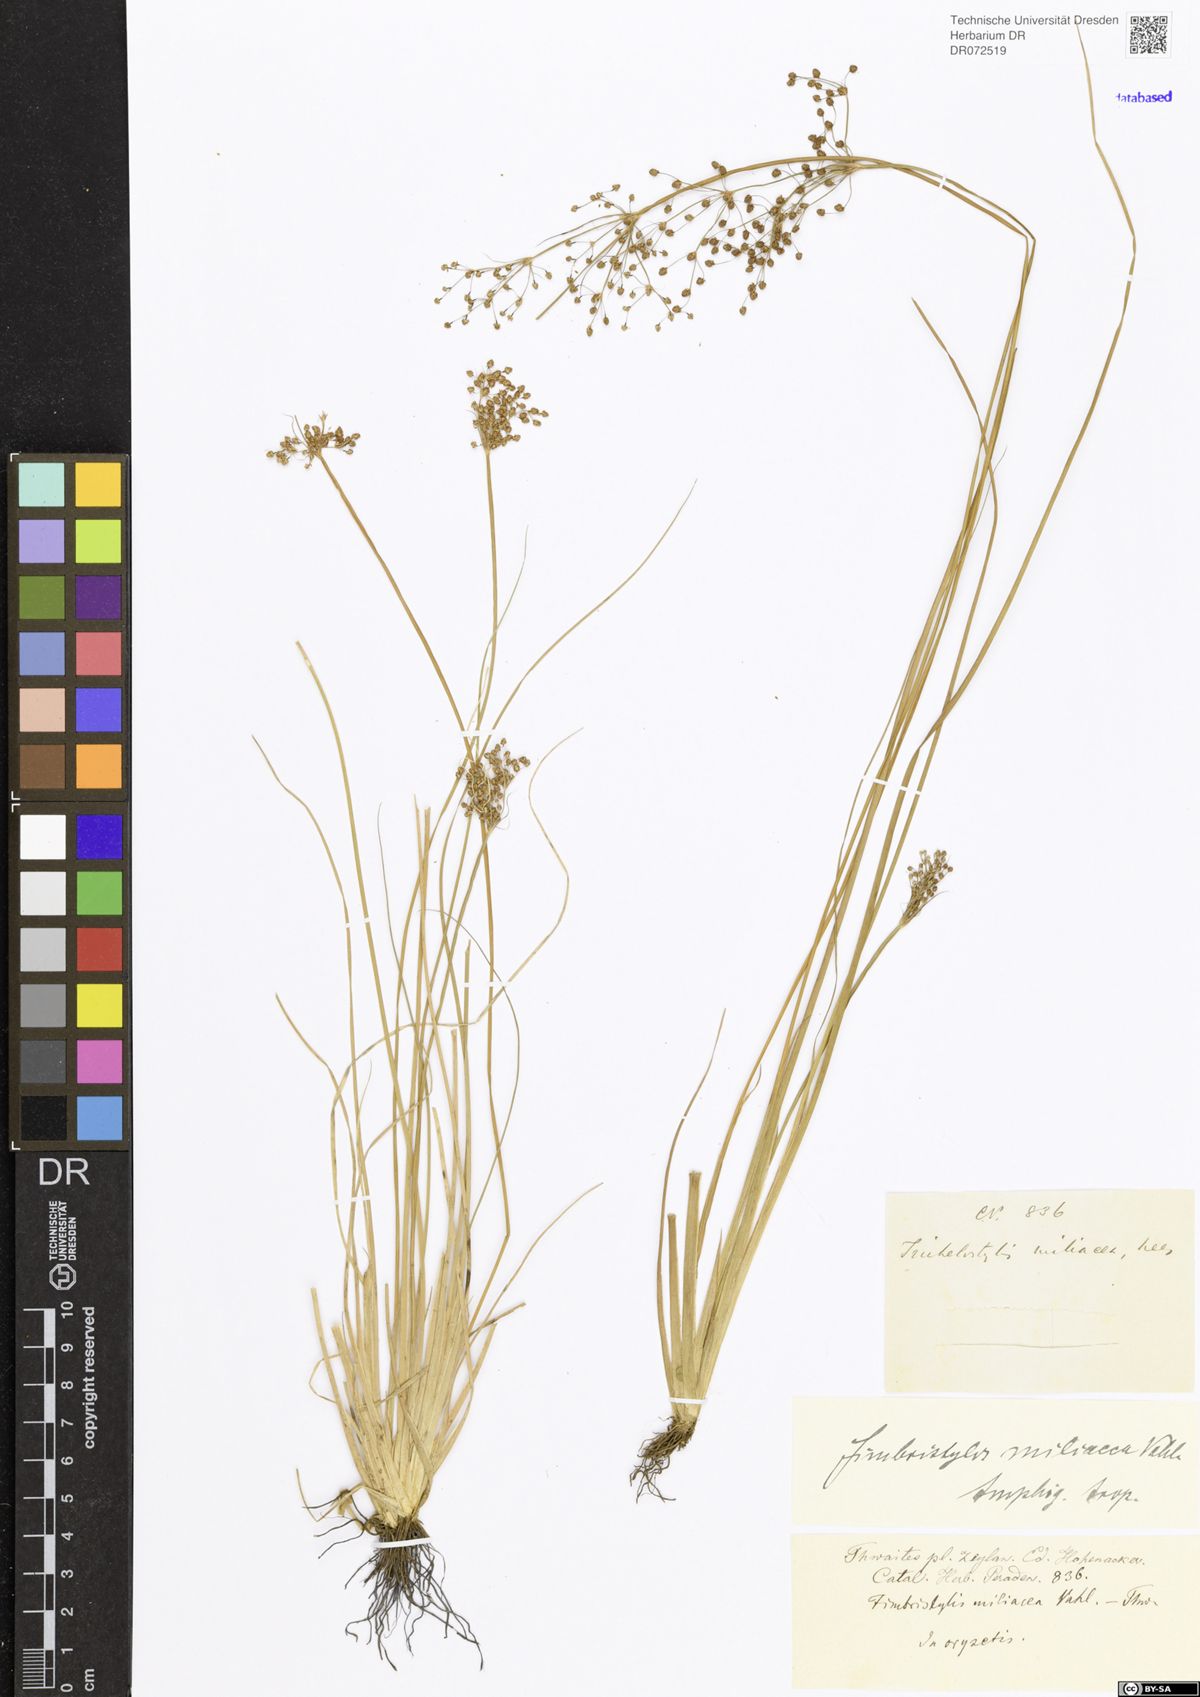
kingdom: Plantae
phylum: Tracheophyta
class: Liliopsida
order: Poales
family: Cyperaceae
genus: Fimbristylis
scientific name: Fimbristylis quinquangularis
